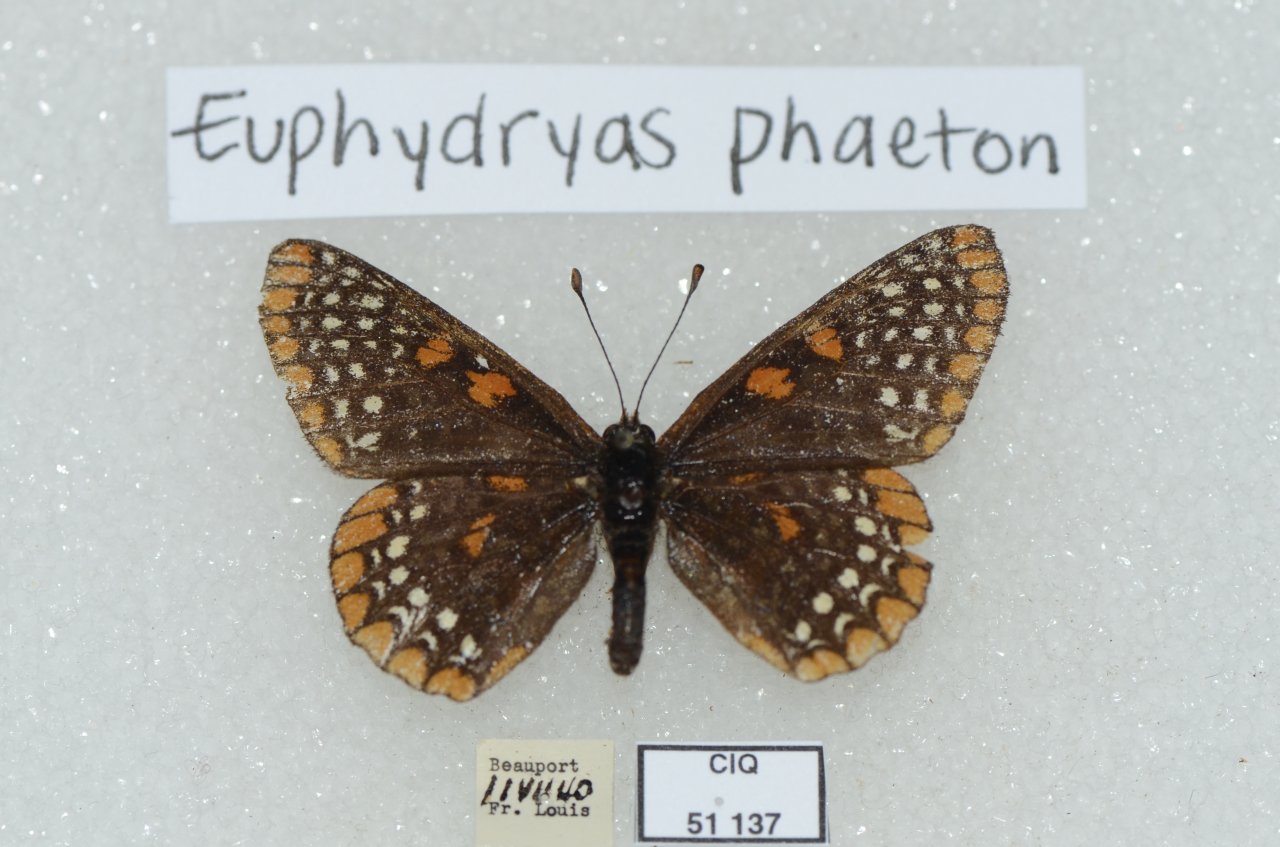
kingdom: Animalia
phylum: Arthropoda
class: Insecta
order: Lepidoptera
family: Nymphalidae
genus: Euphydryas
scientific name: Euphydryas phaeton
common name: Baltimore Checkerspot
